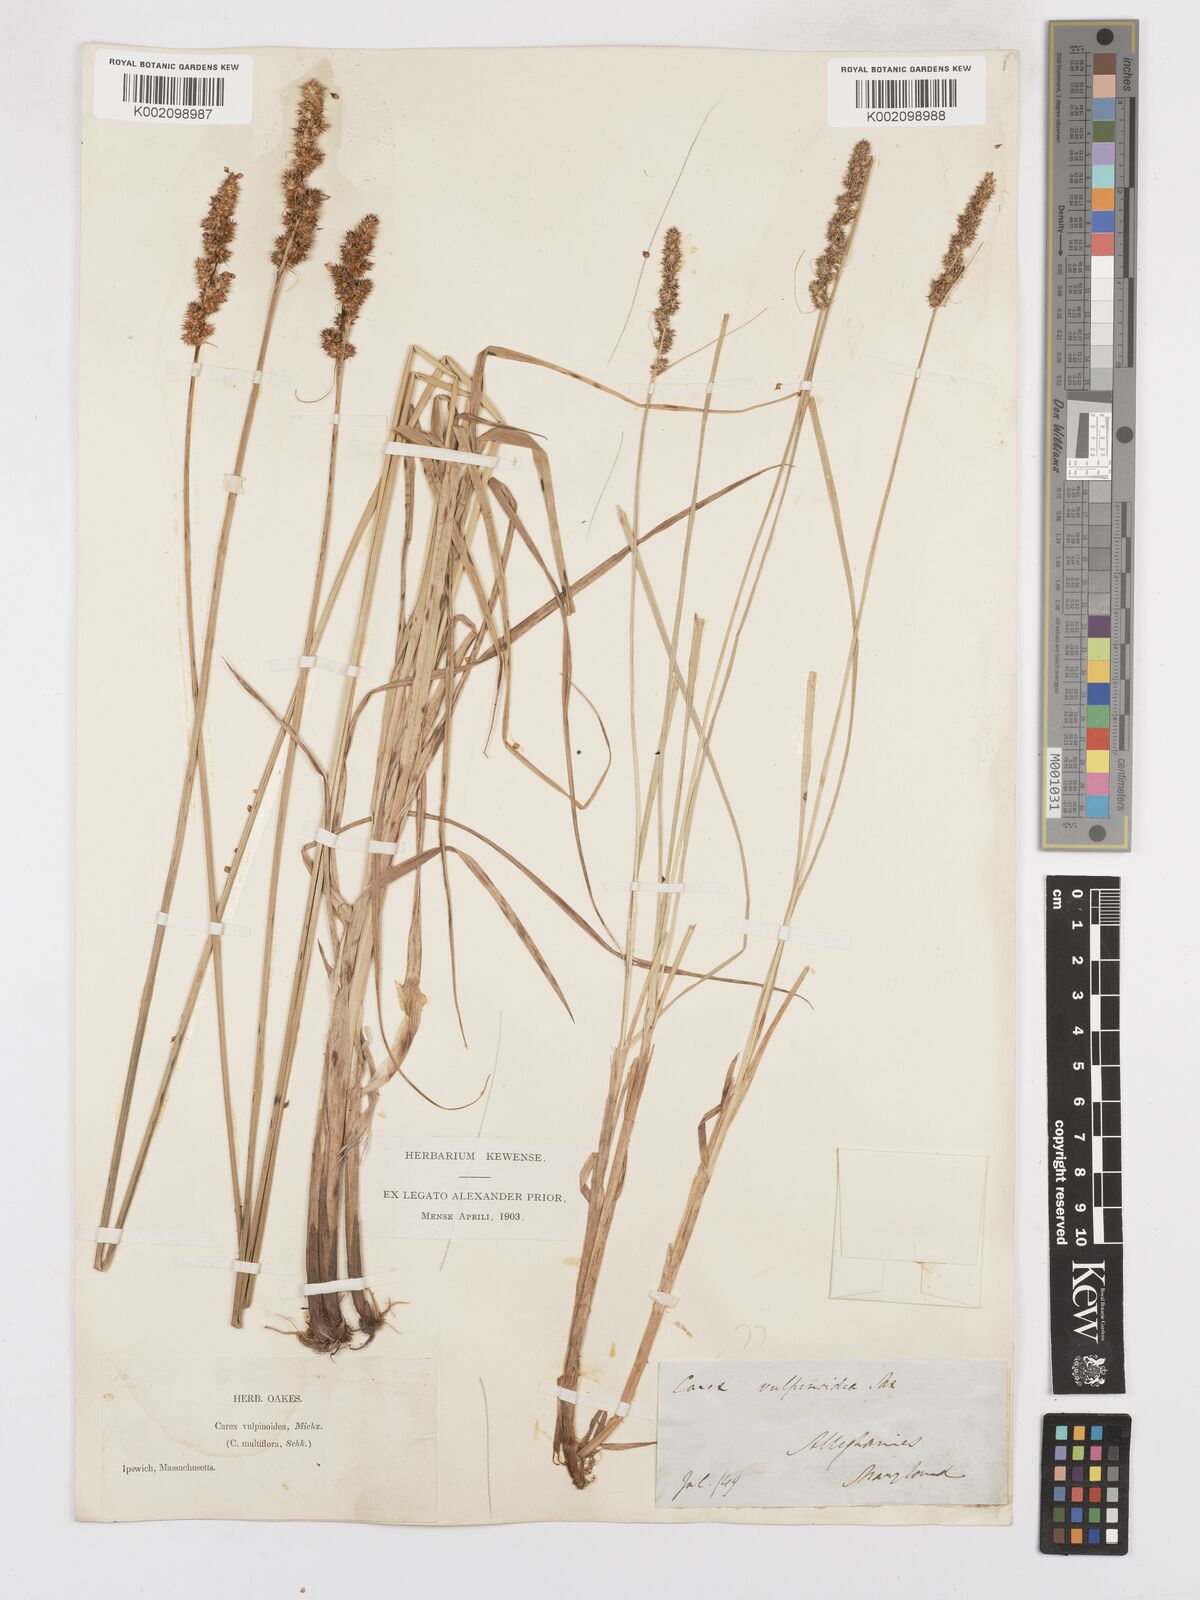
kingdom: Plantae
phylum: Tracheophyta
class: Liliopsida
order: Poales
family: Cyperaceae
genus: Carex
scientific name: Carex vulpinoidea
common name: American fox-sedge
